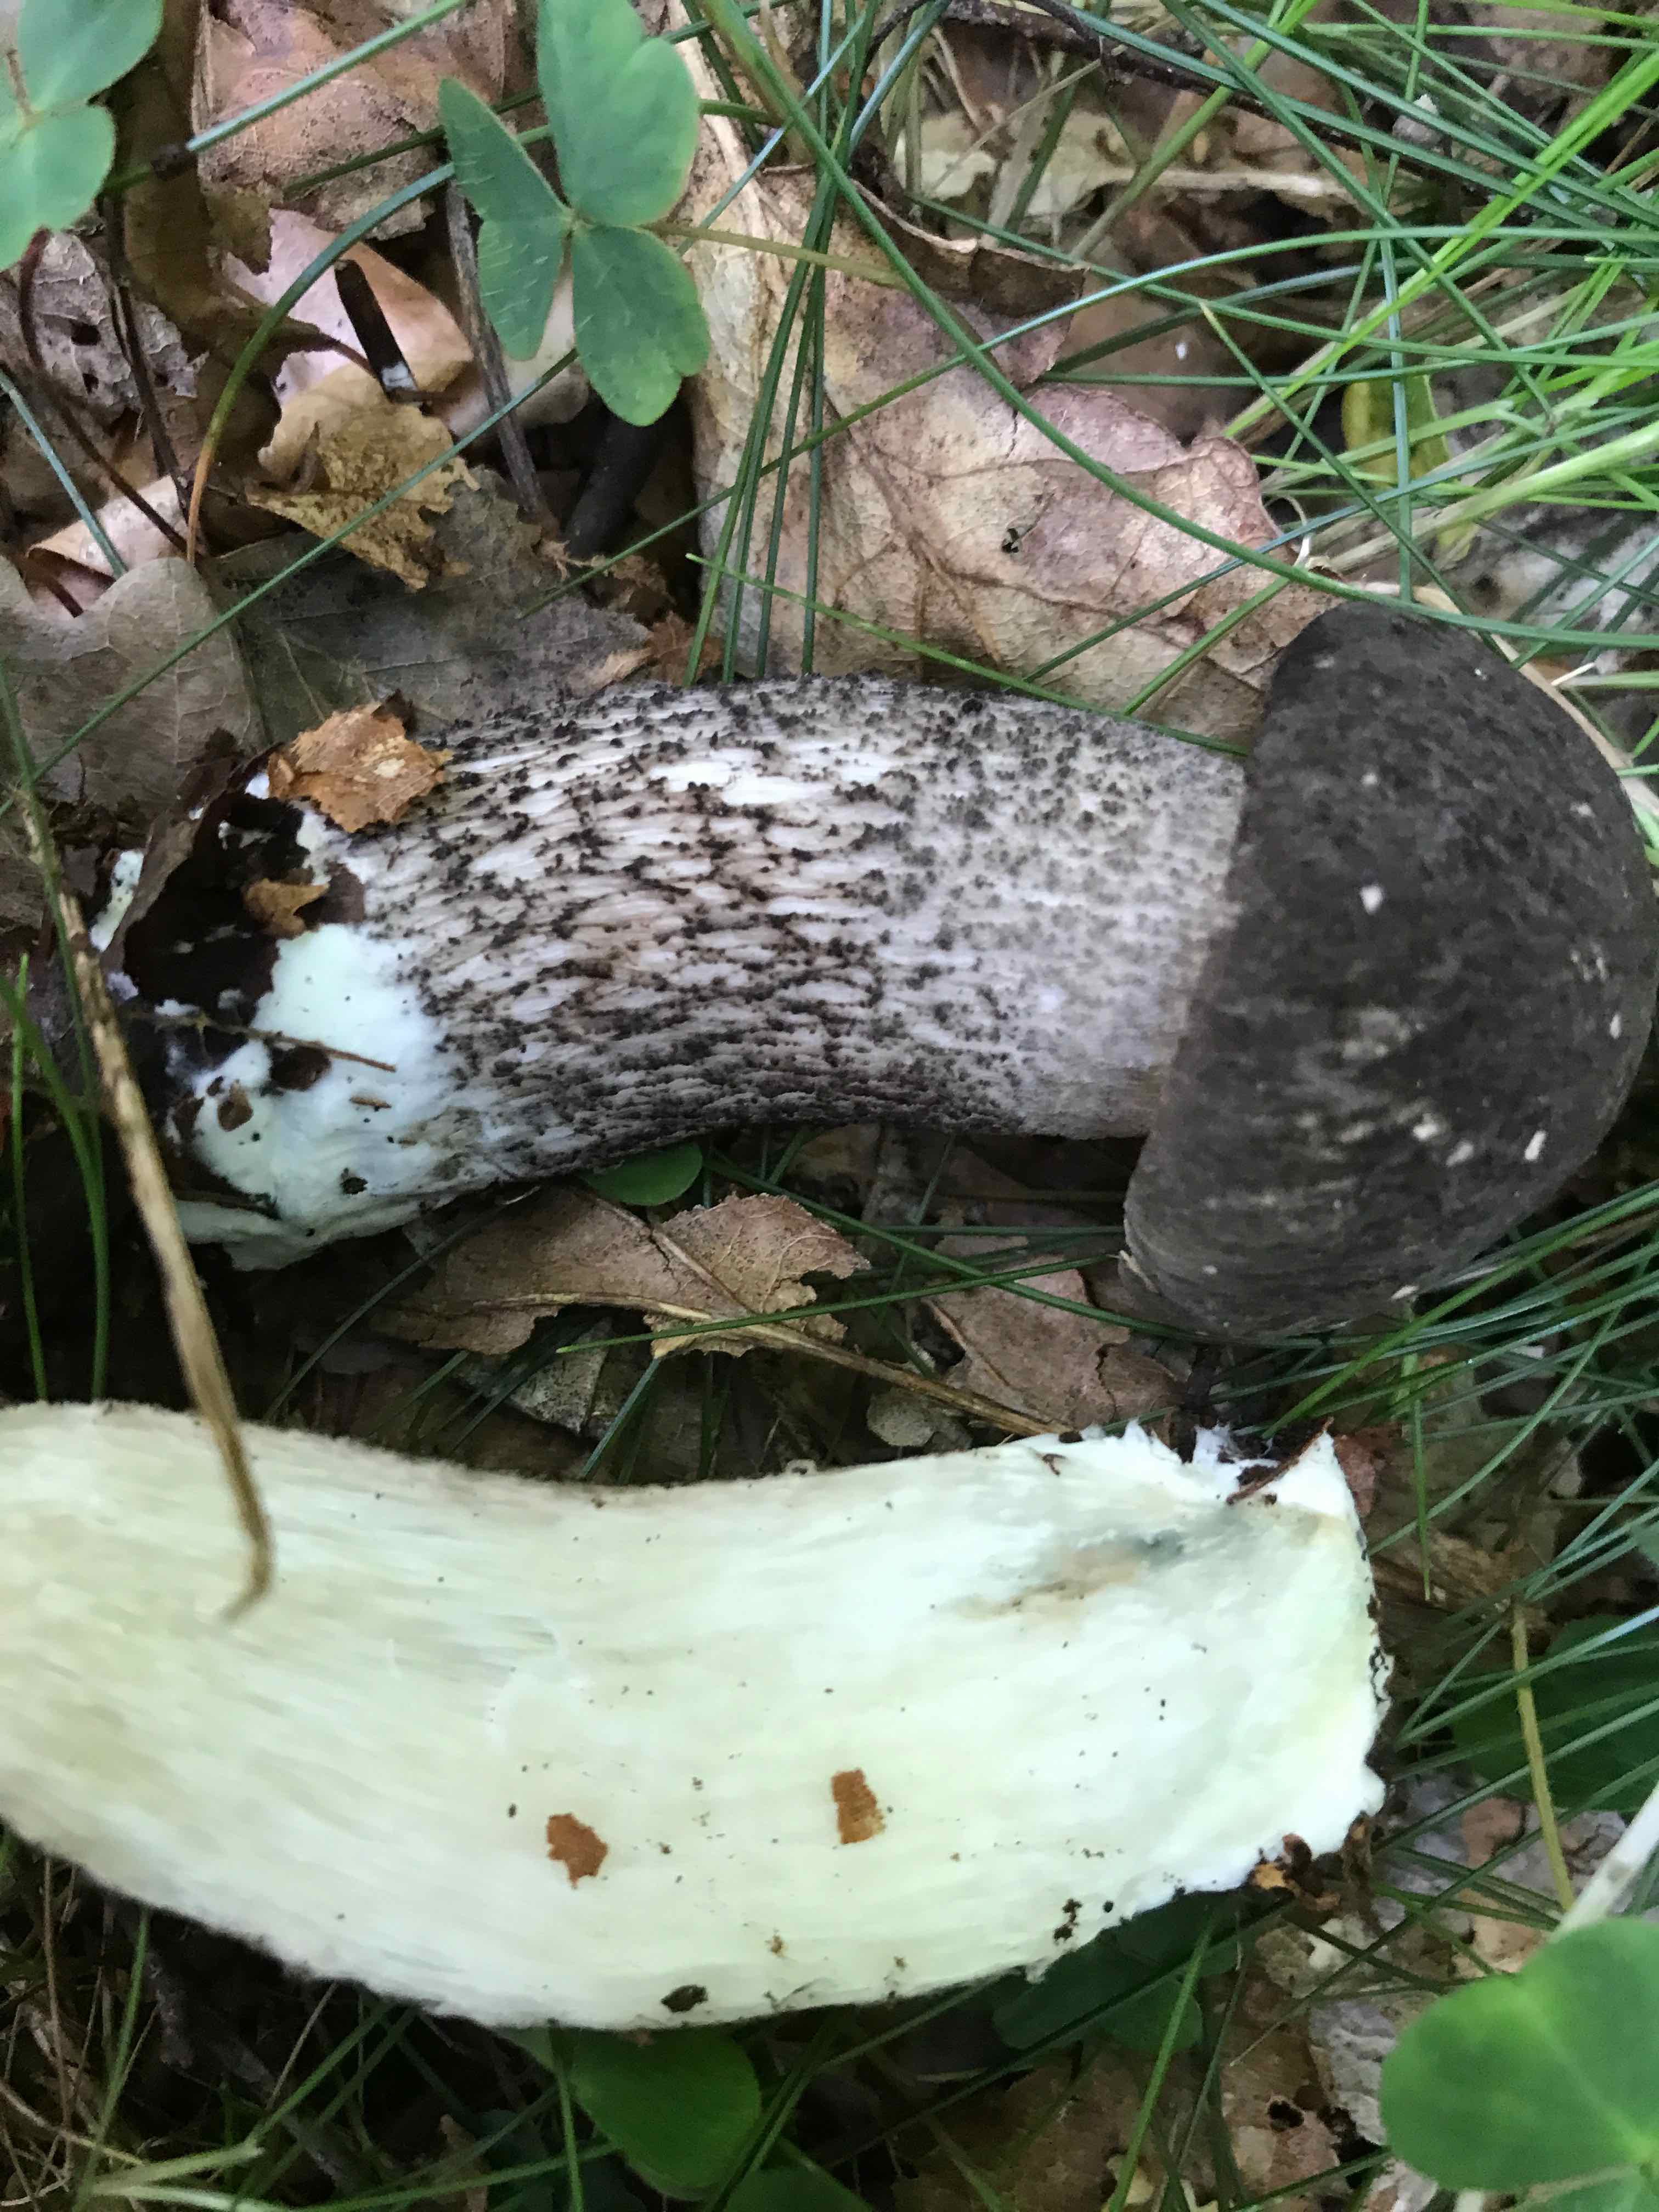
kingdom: Fungi
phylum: Basidiomycota
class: Agaricomycetes
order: Boletales
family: Boletaceae
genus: Leccinum
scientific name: Leccinum variicolor
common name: flammet skælrørhat
